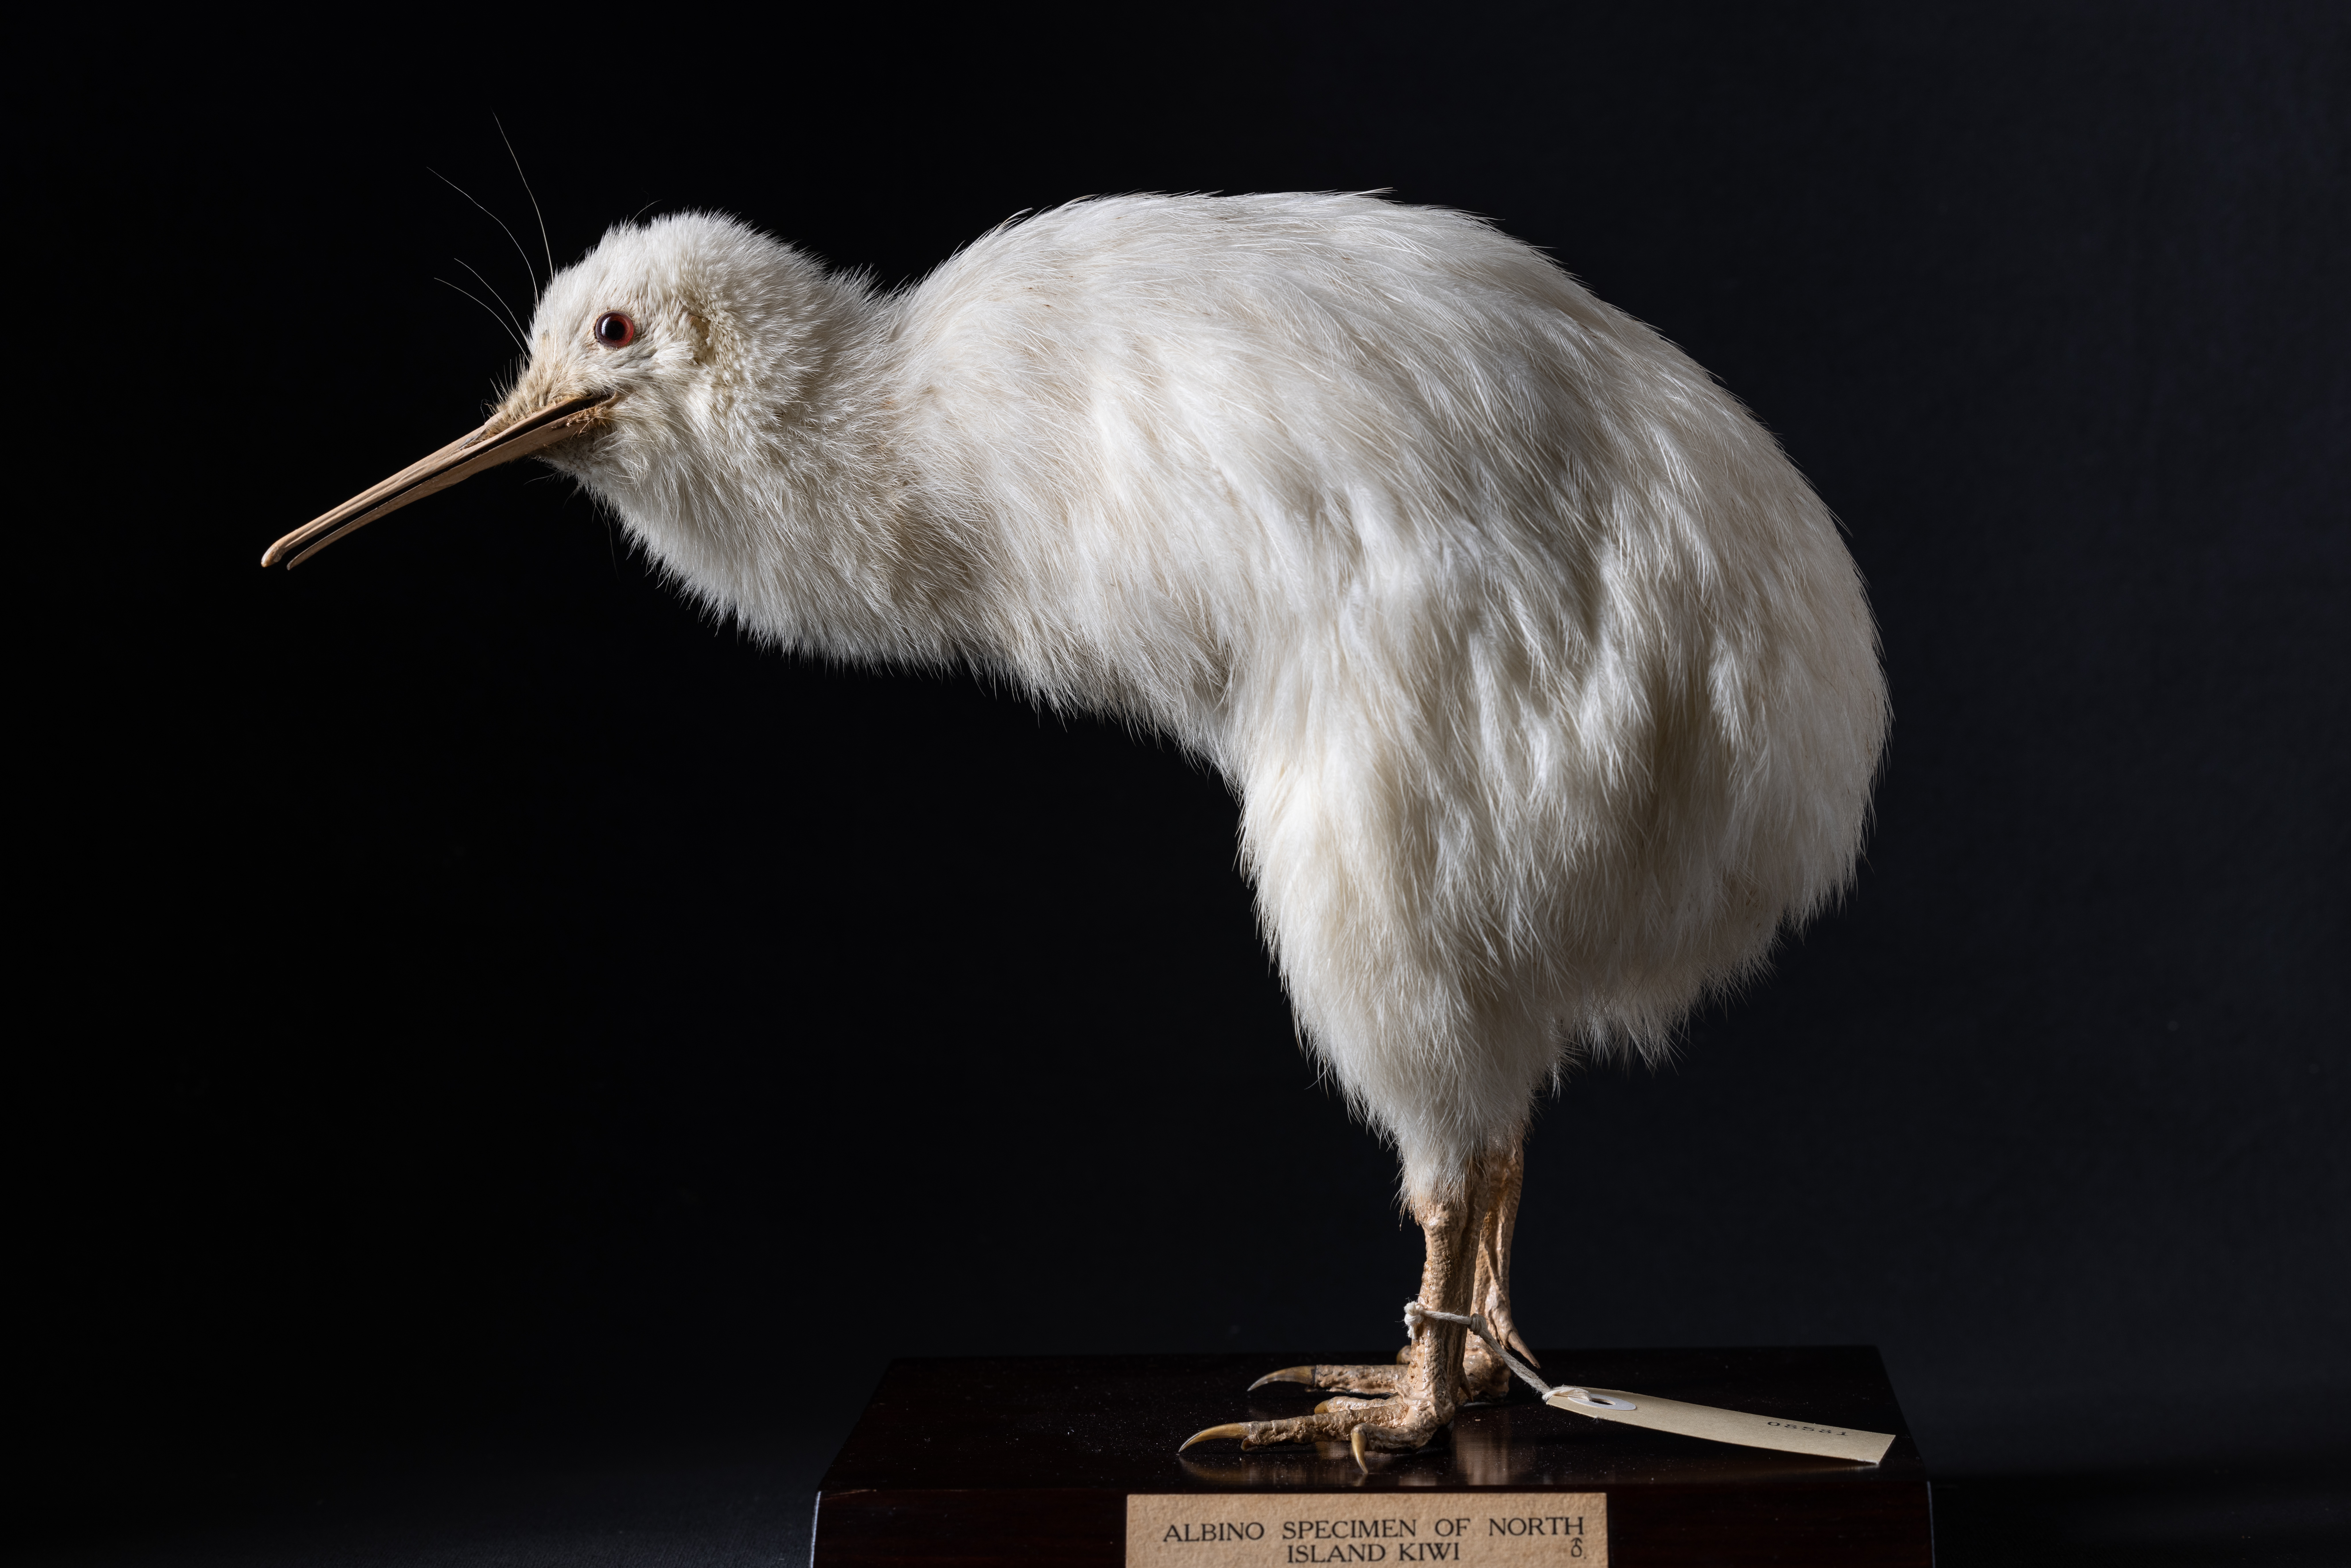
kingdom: Animalia
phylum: Chordata
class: Aves
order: Apterygiformes
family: Apterygidae
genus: Apteryx
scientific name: Apteryx mantelli
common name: North island brown kiwi
